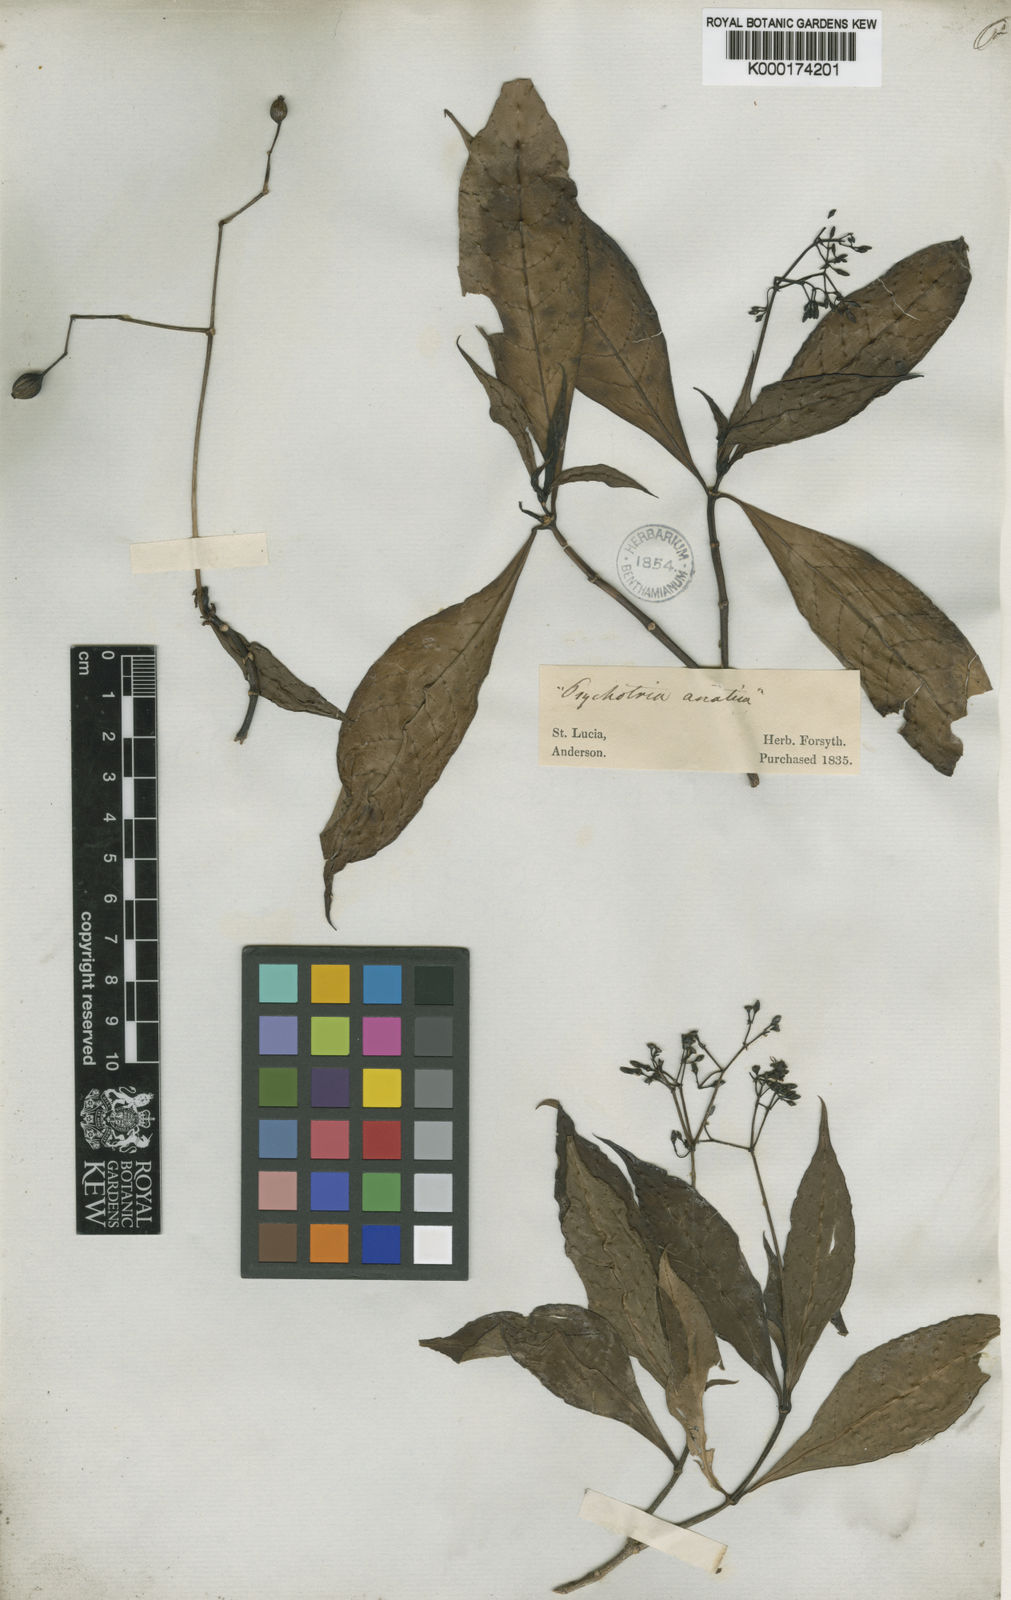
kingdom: Plantae
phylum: Tracheophyta
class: Magnoliopsida
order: Gentianales
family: Rubiaceae
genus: Psychotria
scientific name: Psychotria pleeana
